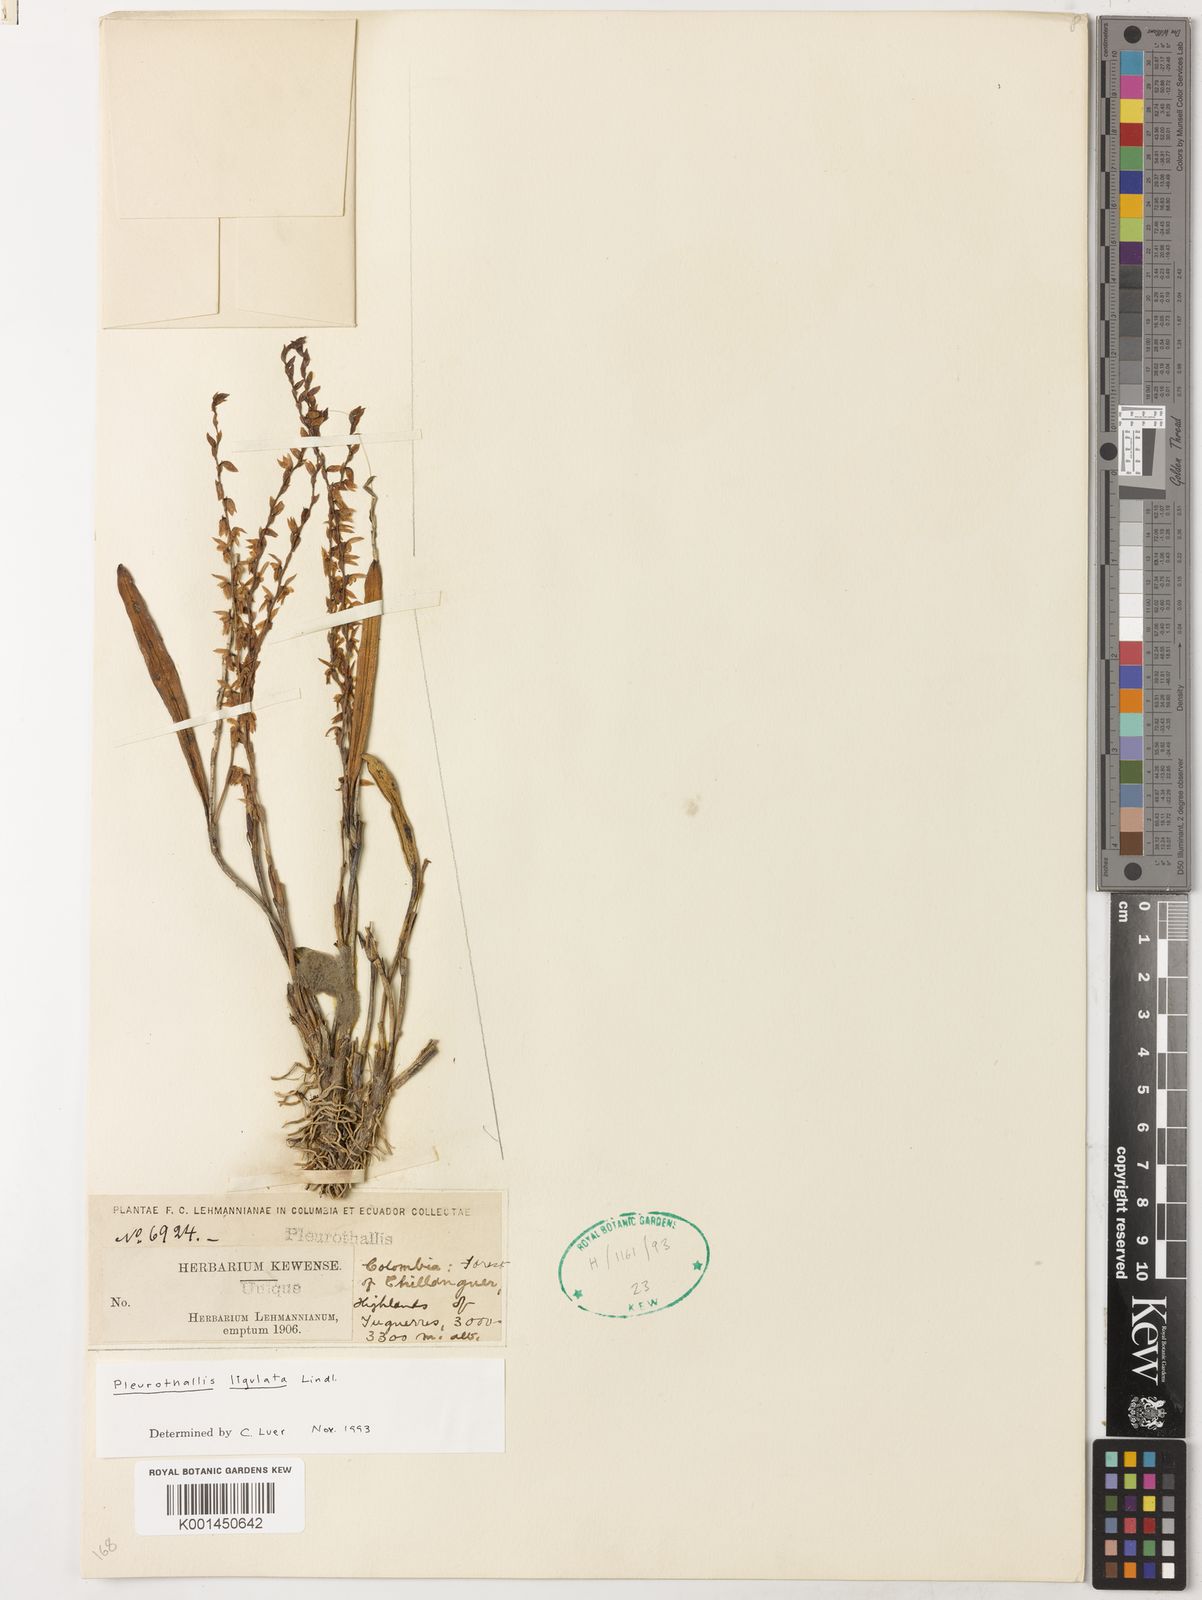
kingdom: Plantae
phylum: Tracheophyta
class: Liliopsida
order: Asparagales
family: Orchidaceae
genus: Stelis
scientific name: Stelis ligulata
